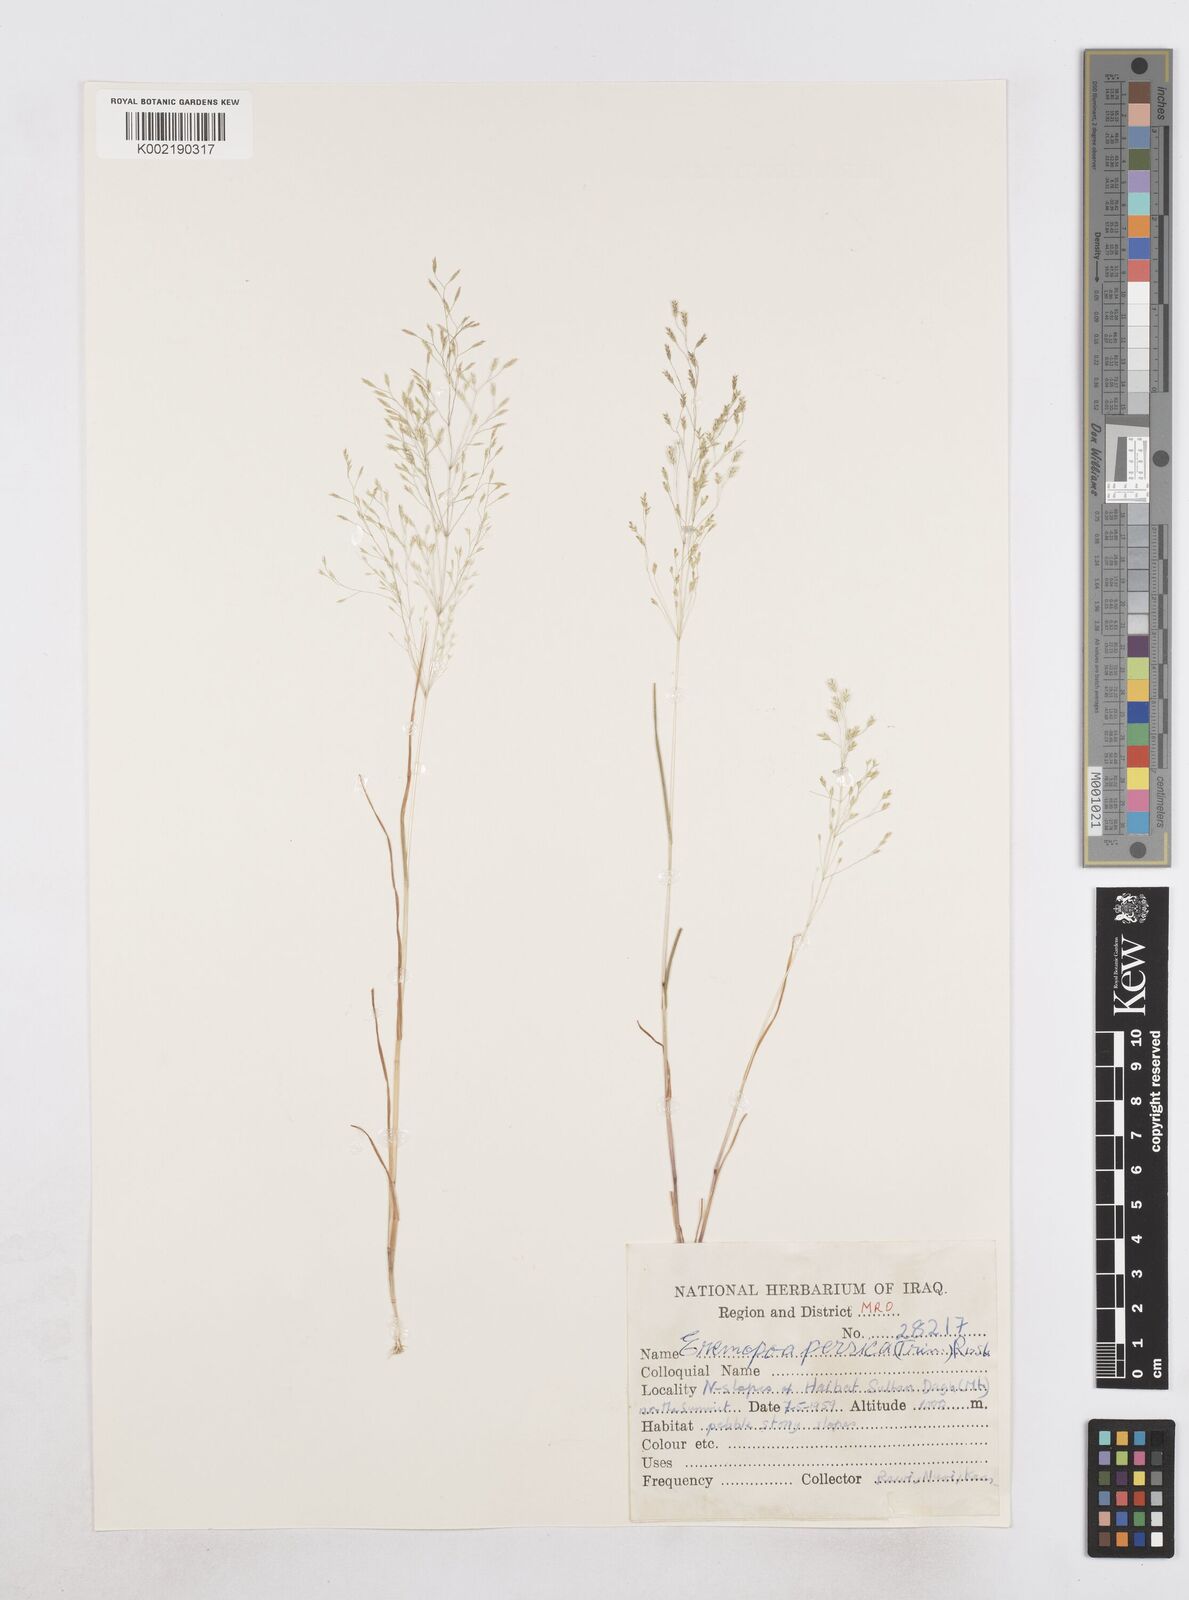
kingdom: Plantae
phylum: Tracheophyta
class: Liliopsida
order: Poales
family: Poaceae
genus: Poa
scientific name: Poa persica
